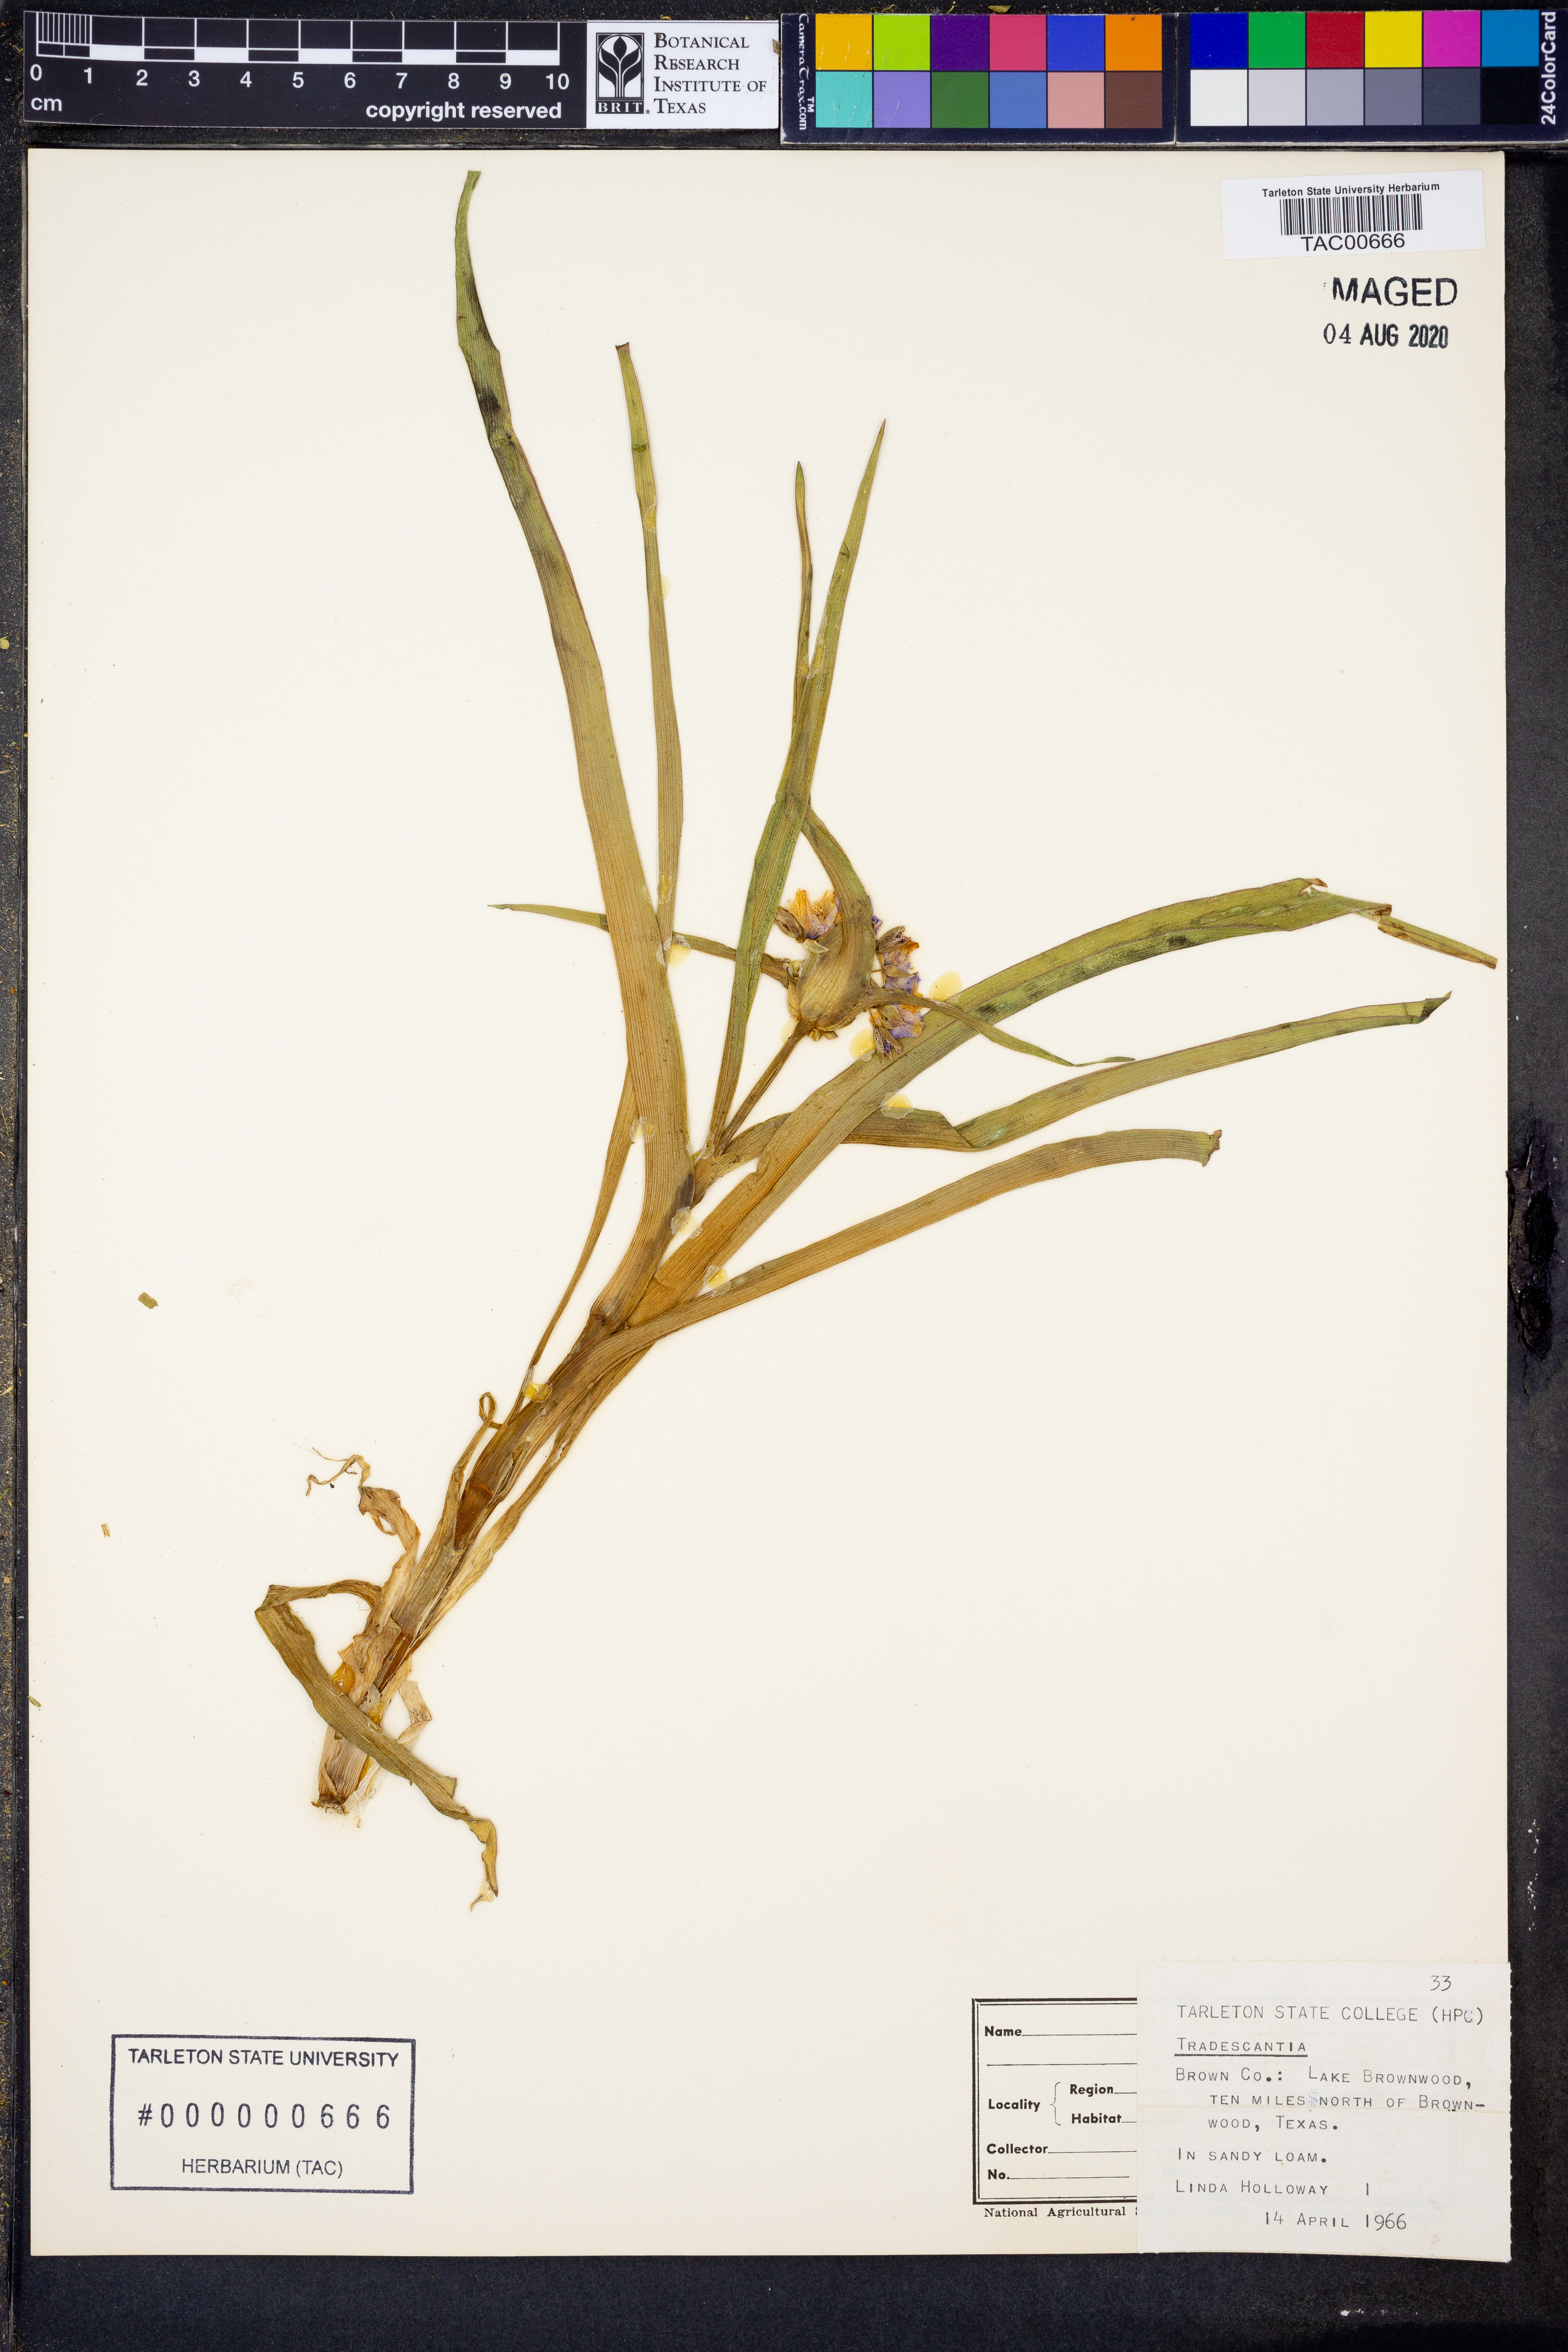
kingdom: Plantae
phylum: Tracheophyta
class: Liliopsida
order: Commelinales
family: Commelinaceae
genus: Tradescantia
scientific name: Tradescantia
